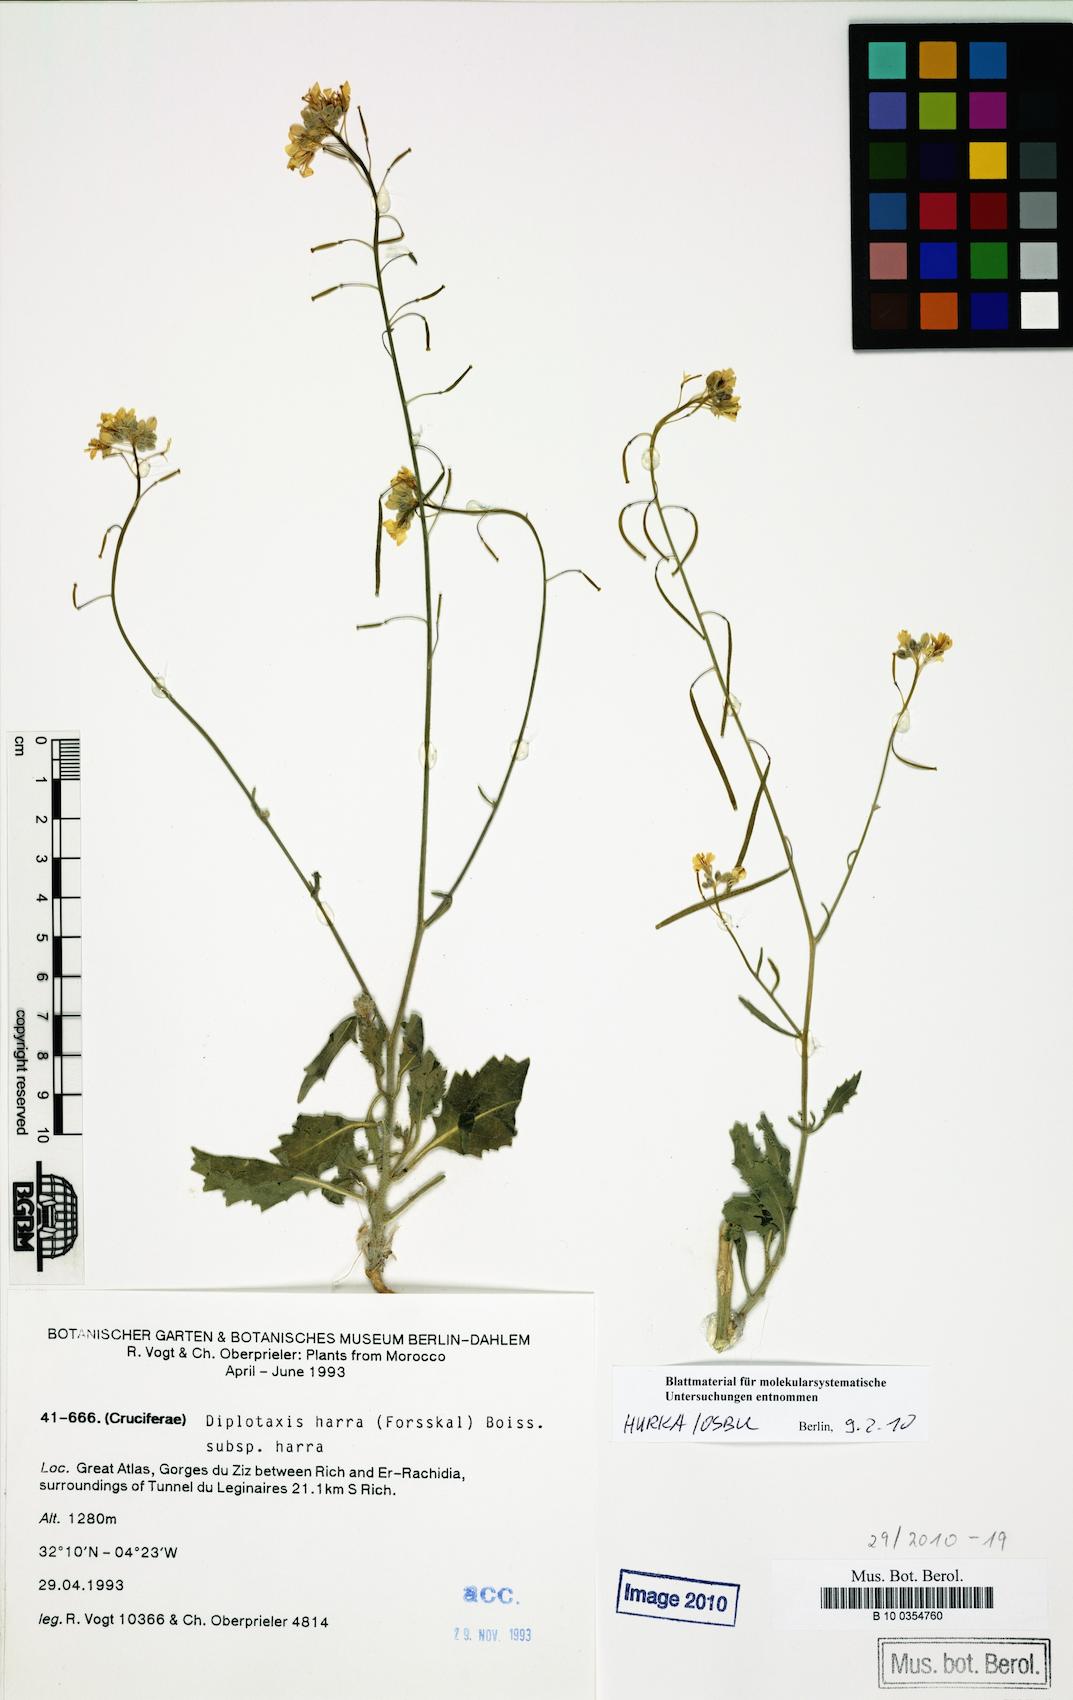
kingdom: Plantae
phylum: Tracheophyta
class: Magnoliopsida
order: Brassicales
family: Brassicaceae
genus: Diplotaxis
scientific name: Diplotaxis harra
